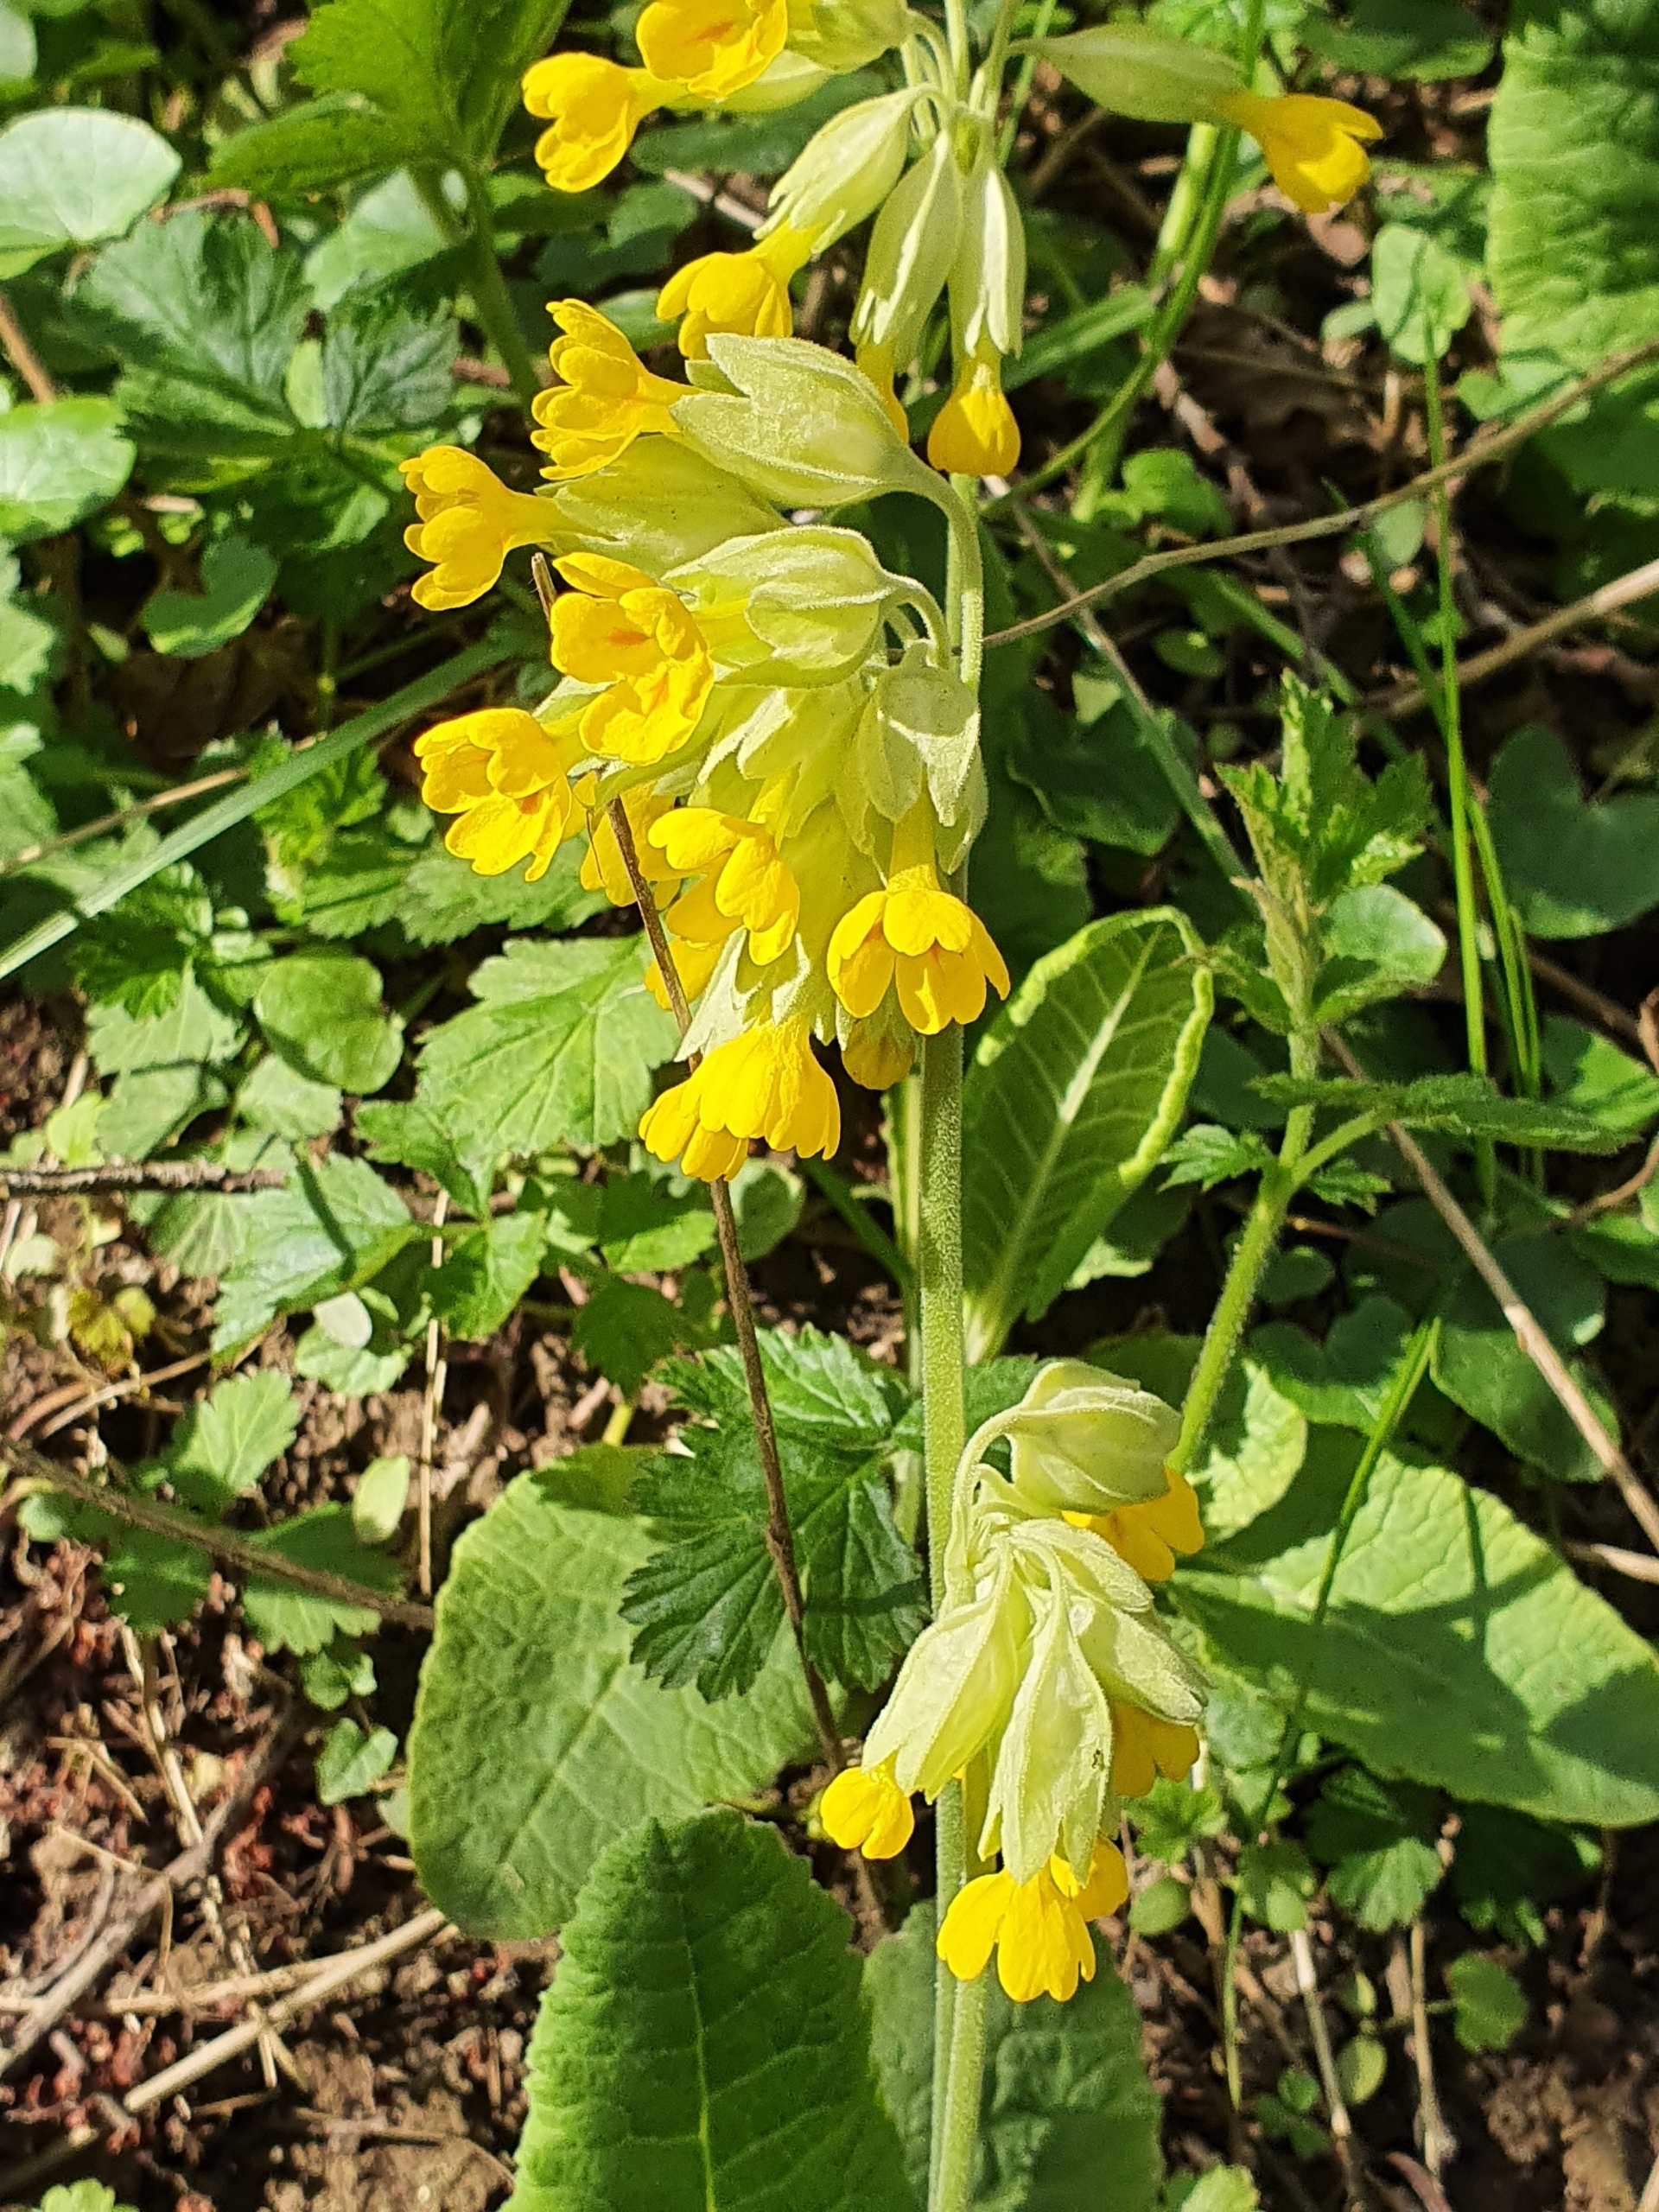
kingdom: Plantae
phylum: Tracheophyta
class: Magnoliopsida
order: Ericales
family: Primulaceae
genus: Primula
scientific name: Primula veris
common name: Hulkravet kodriver
